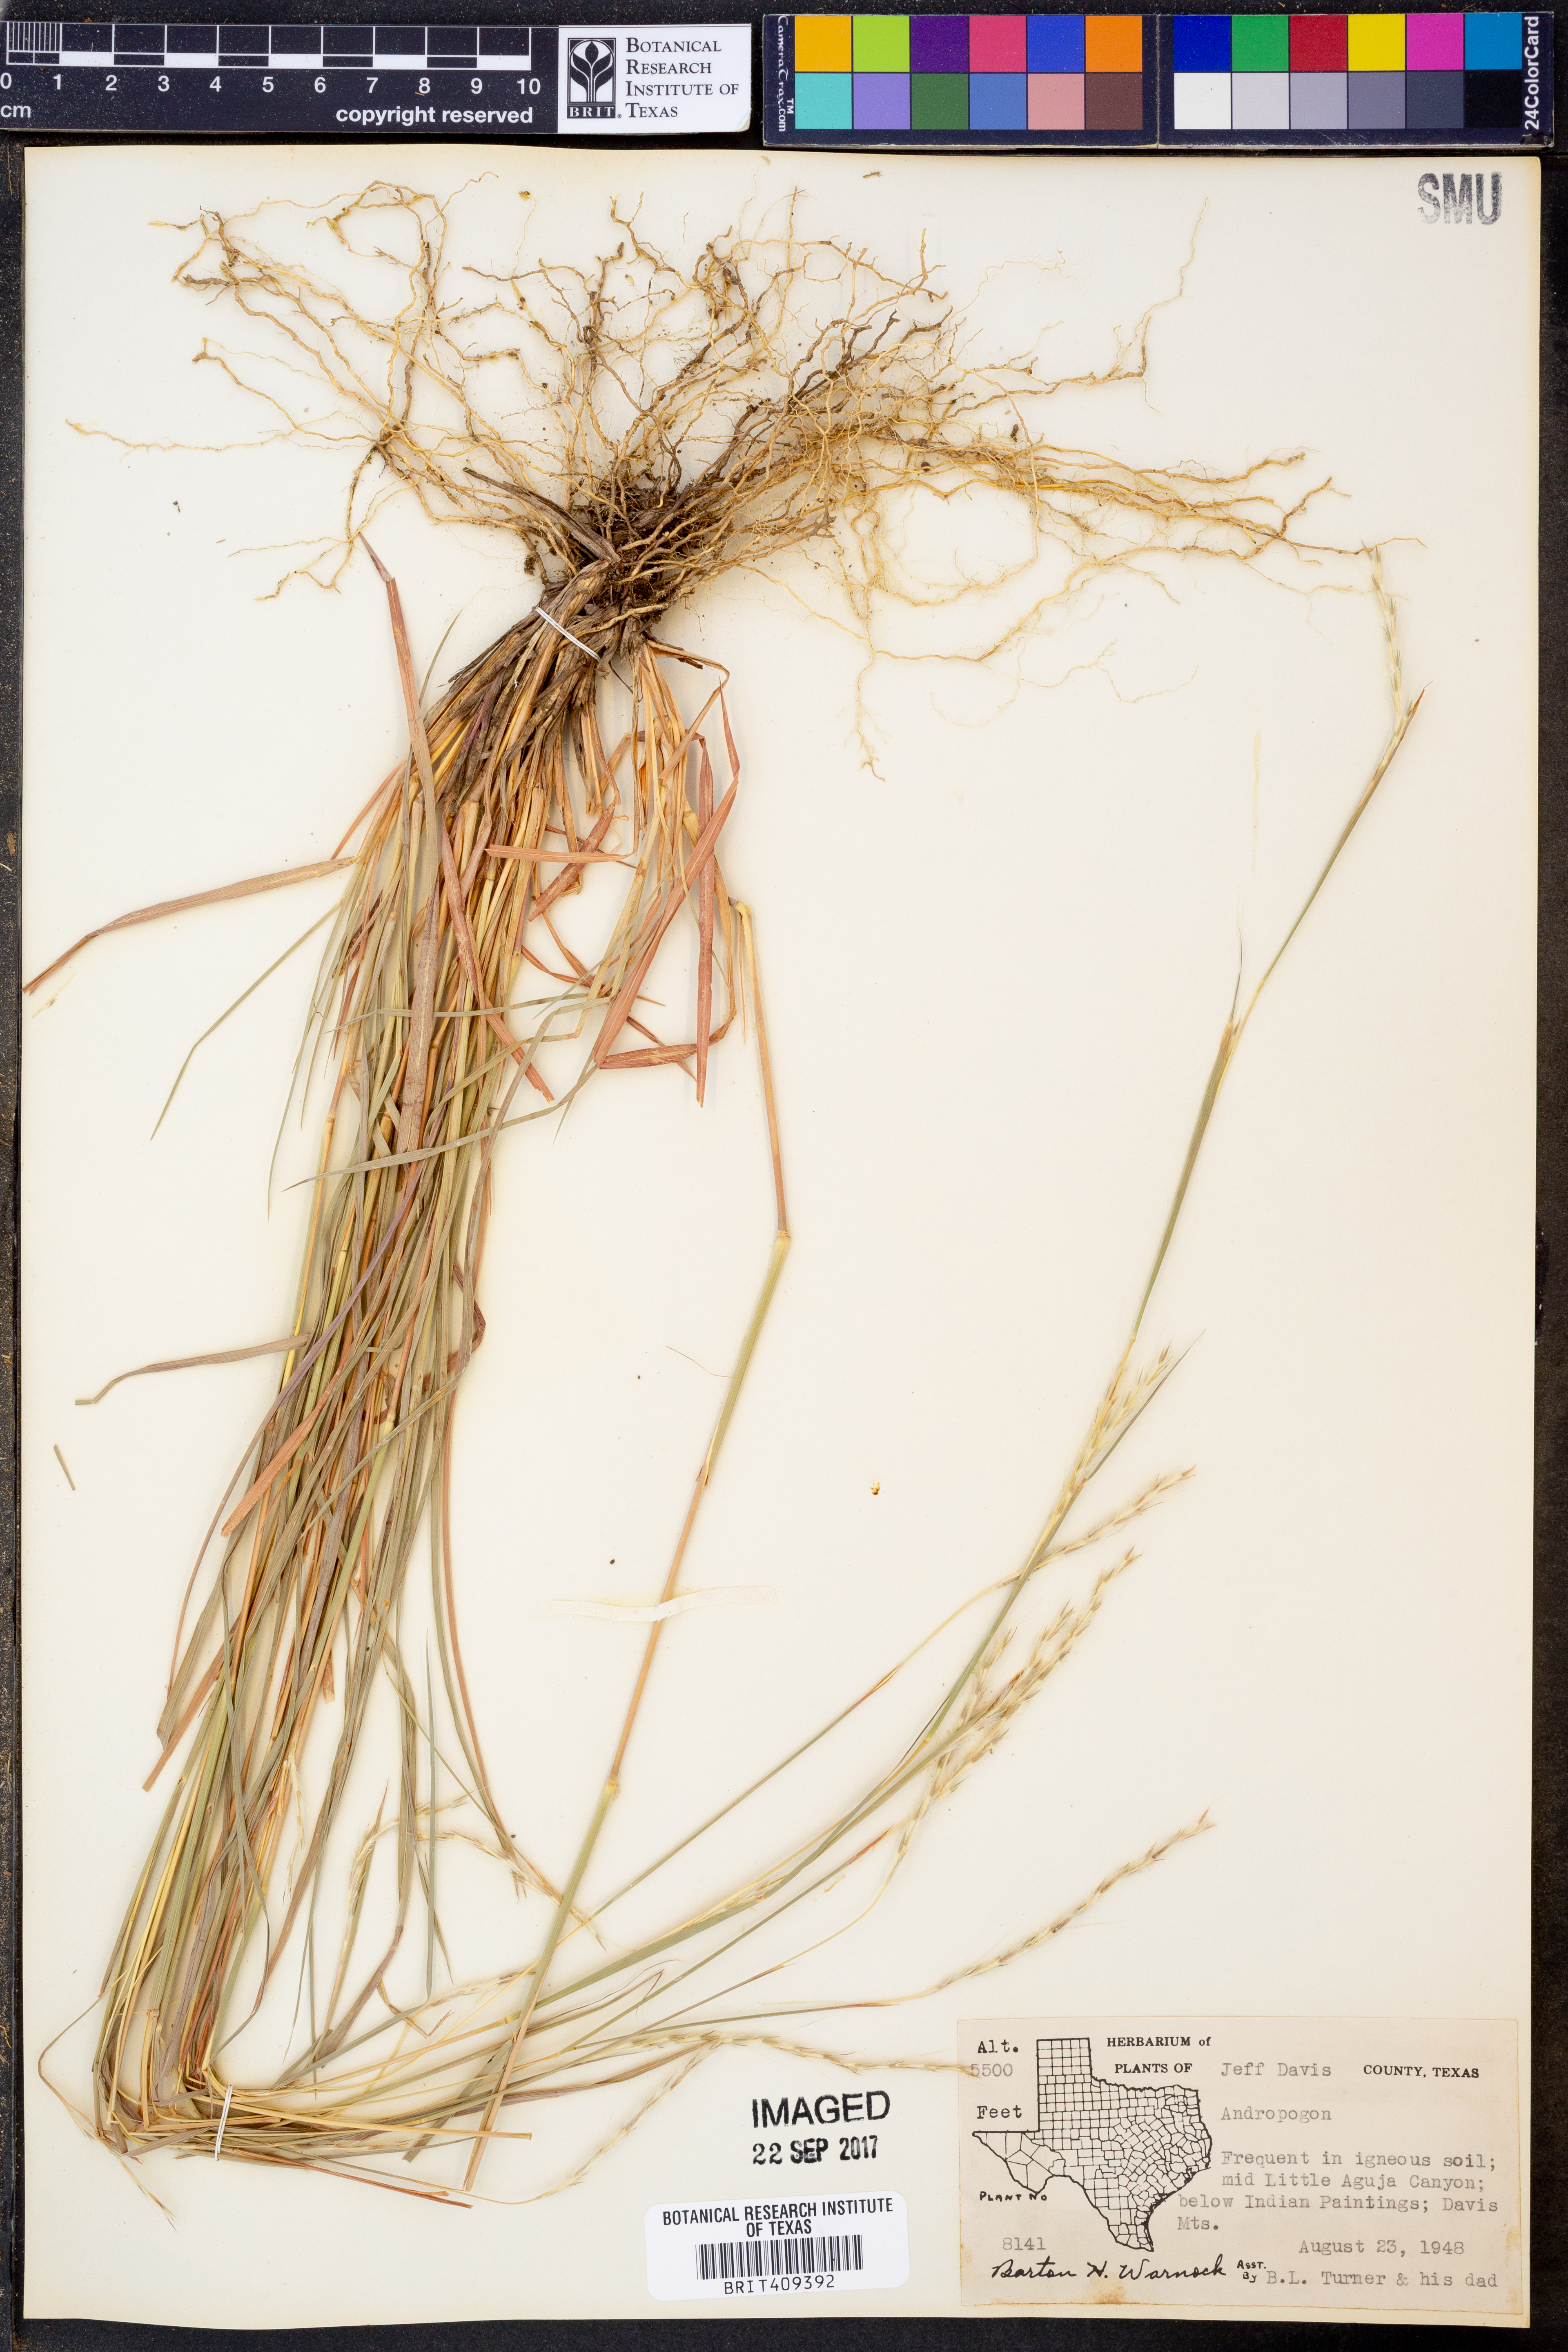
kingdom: Plantae
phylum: Tracheophyta
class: Liliopsida
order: Poales
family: Poaceae
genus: Andropogon
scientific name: Andropogon
